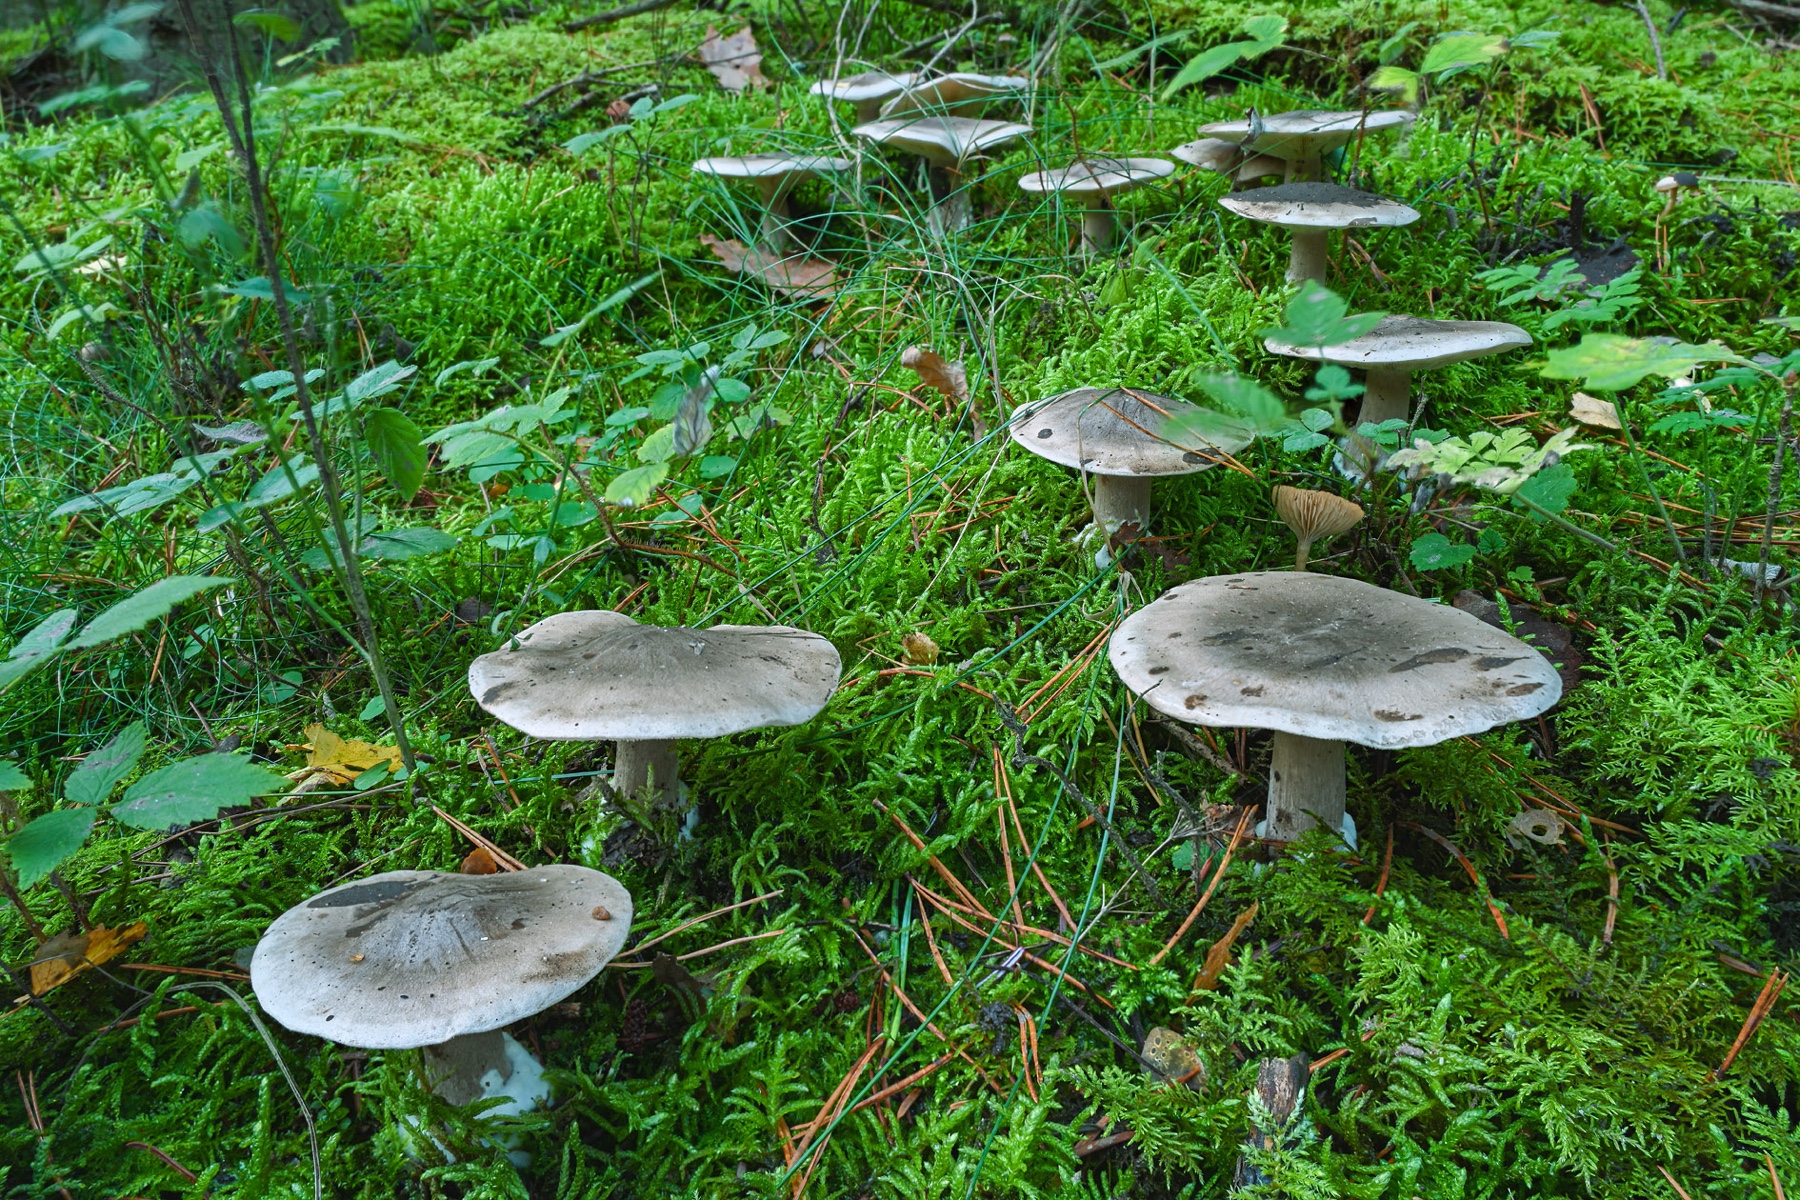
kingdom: Fungi
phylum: Basidiomycota
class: Agaricomycetes
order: Agaricales
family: Tricholomataceae
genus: Clitocybe
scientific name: Clitocybe nebularis
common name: tåge-tragthat
